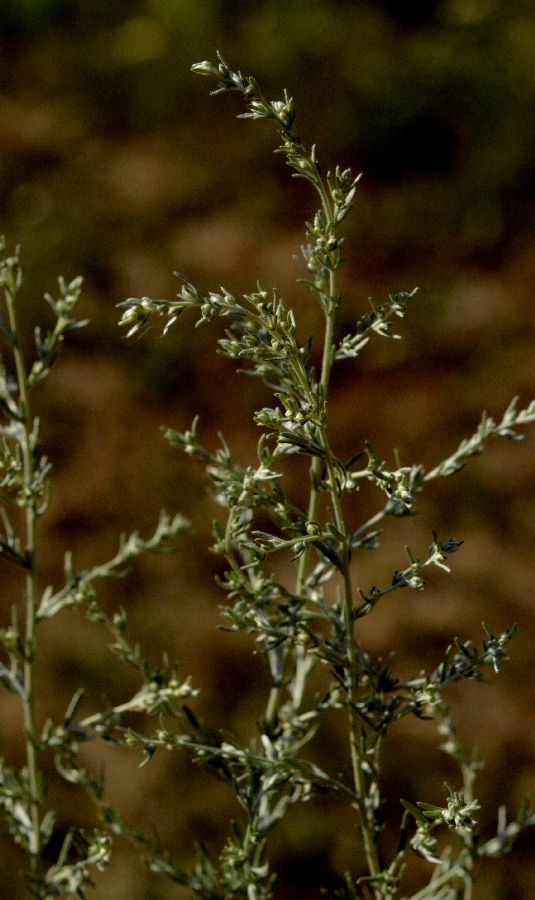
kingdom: Plantae
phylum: Tracheophyta
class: Magnoliopsida
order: Asterales
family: Asteraceae
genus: Artemisia
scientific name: Artemisia campestris
